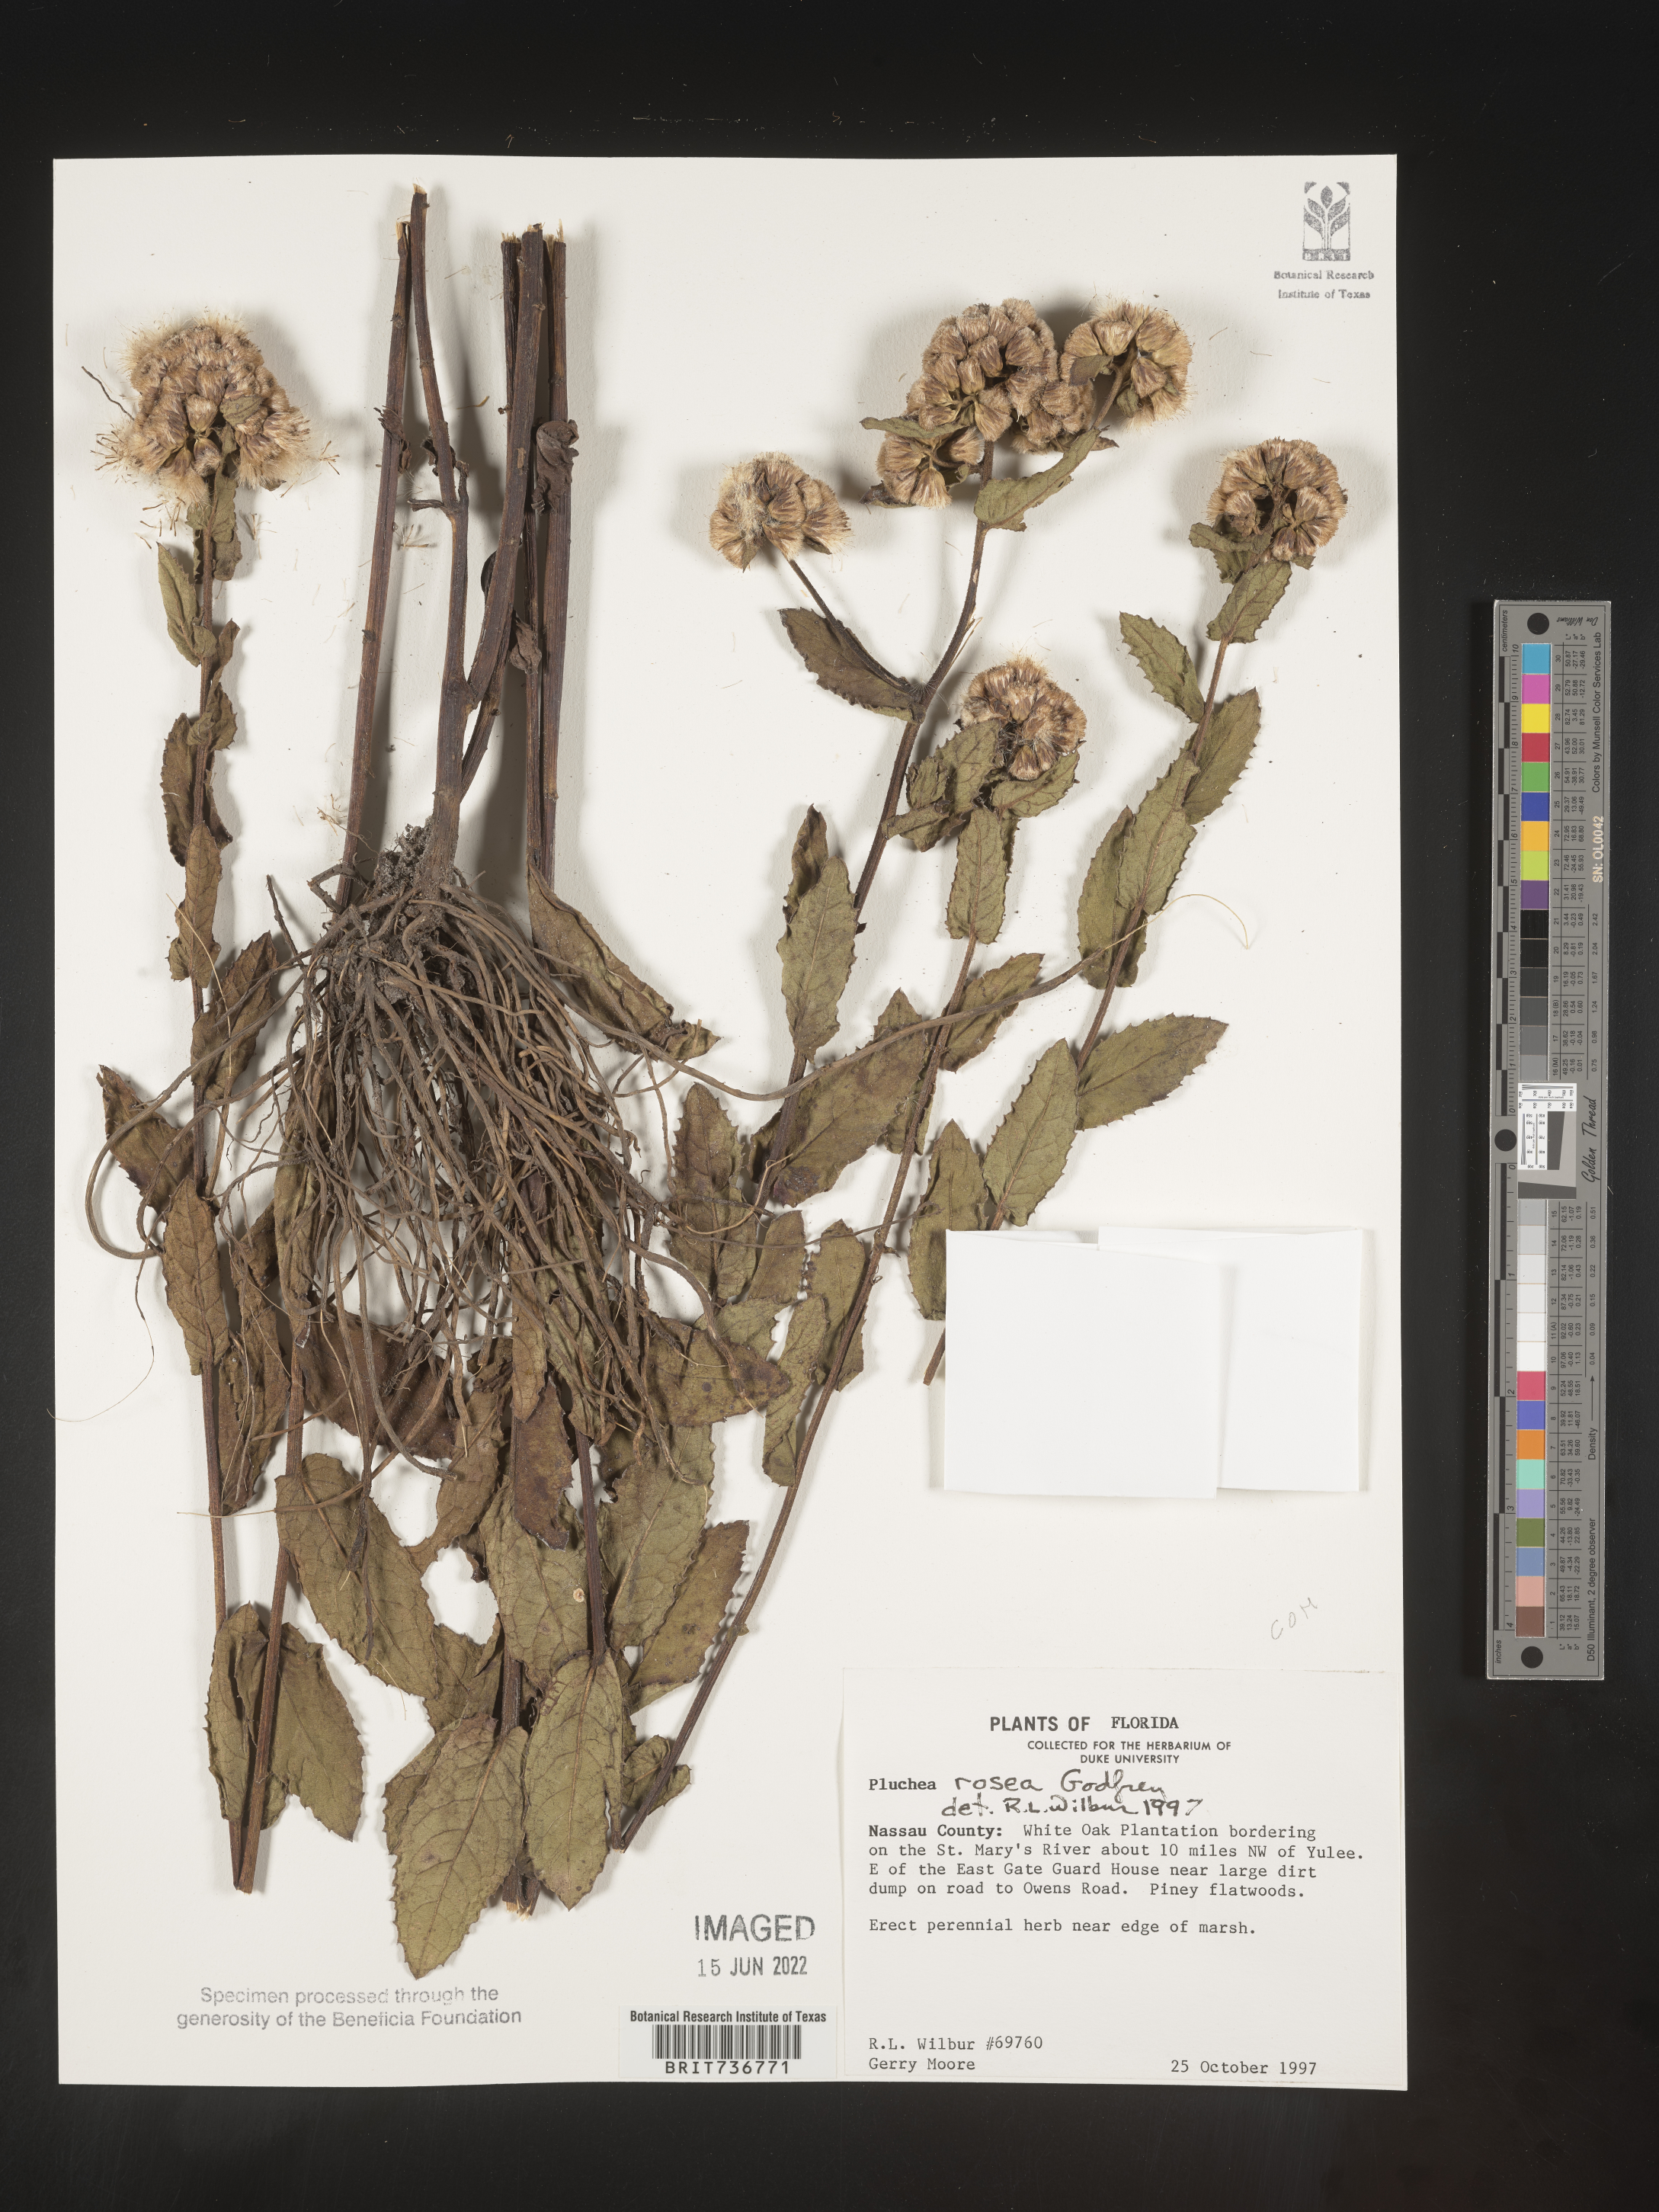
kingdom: Plantae
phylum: Tracheophyta
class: Magnoliopsida
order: Asterales
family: Asteraceae
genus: Pluchea
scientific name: Pluchea baccharis
